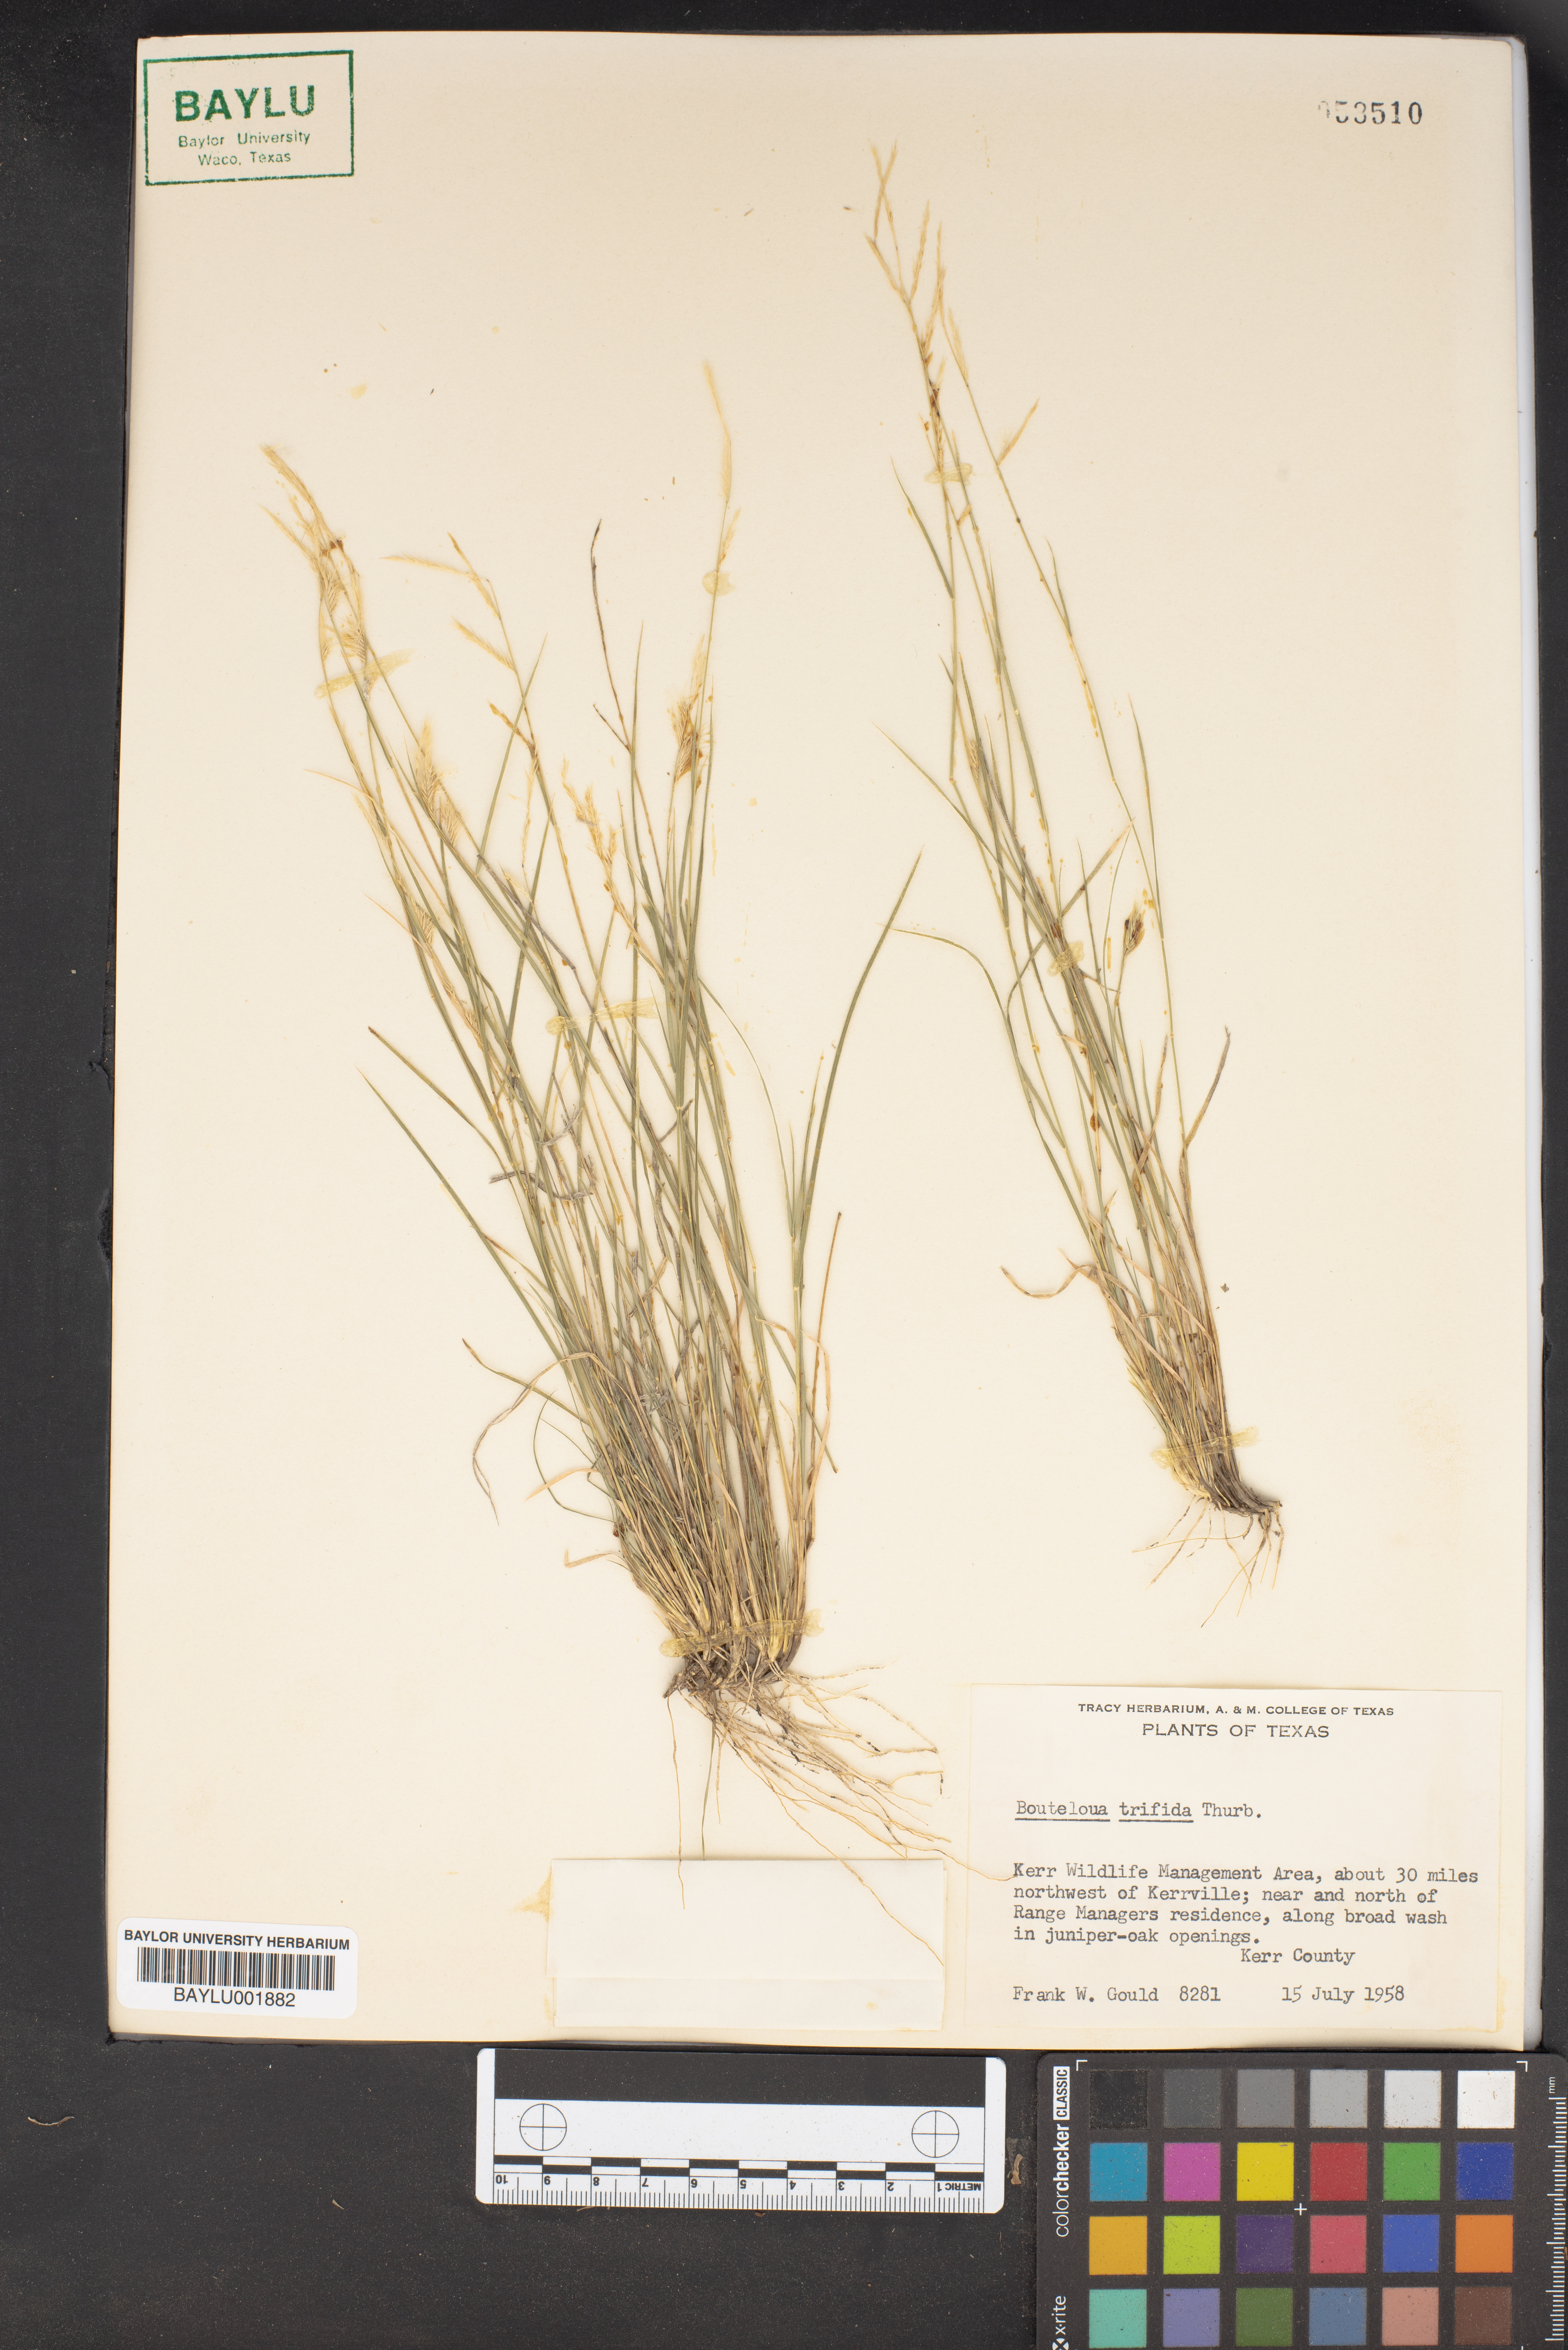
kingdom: Plantae
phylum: Tracheophyta
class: Liliopsida
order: Poales
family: Poaceae
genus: Bouteloua
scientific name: Bouteloua trifida
